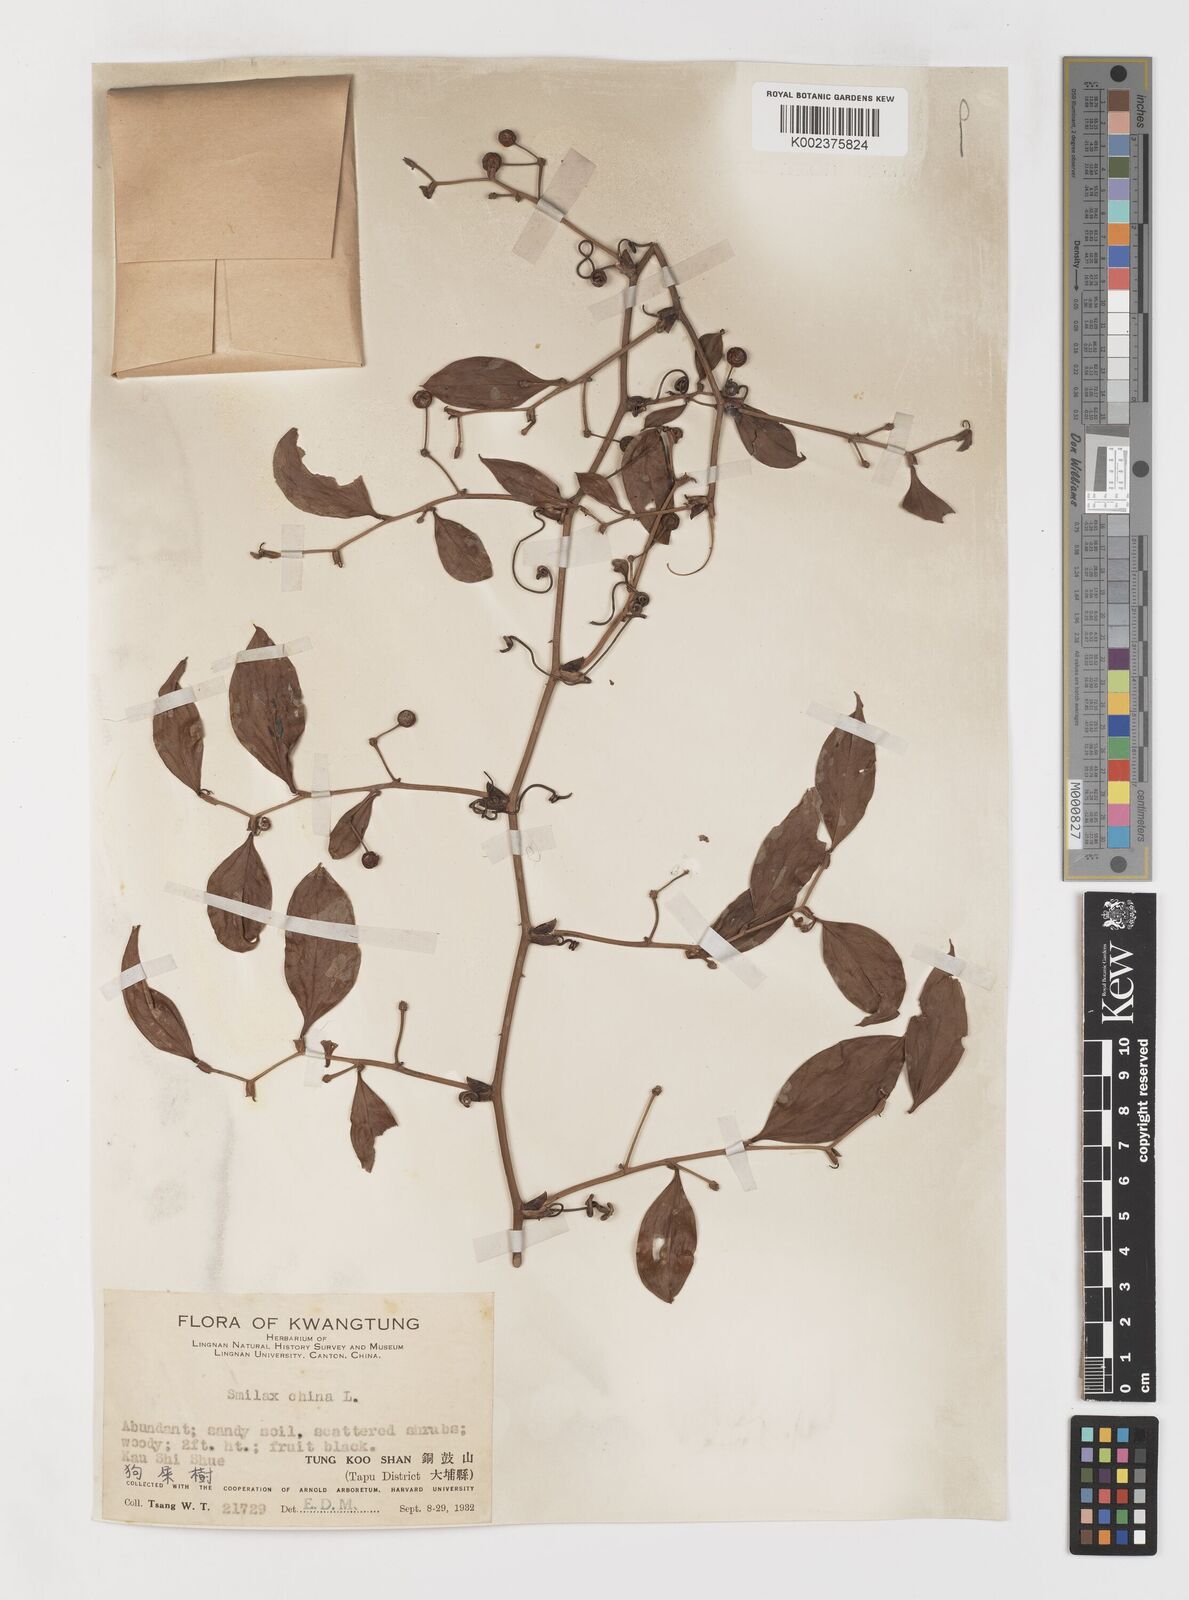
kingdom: Plantae
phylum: Tracheophyta
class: Liliopsida
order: Liliales
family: Smilacaceae
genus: Smilax
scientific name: Smilax china
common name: Chinaroot
